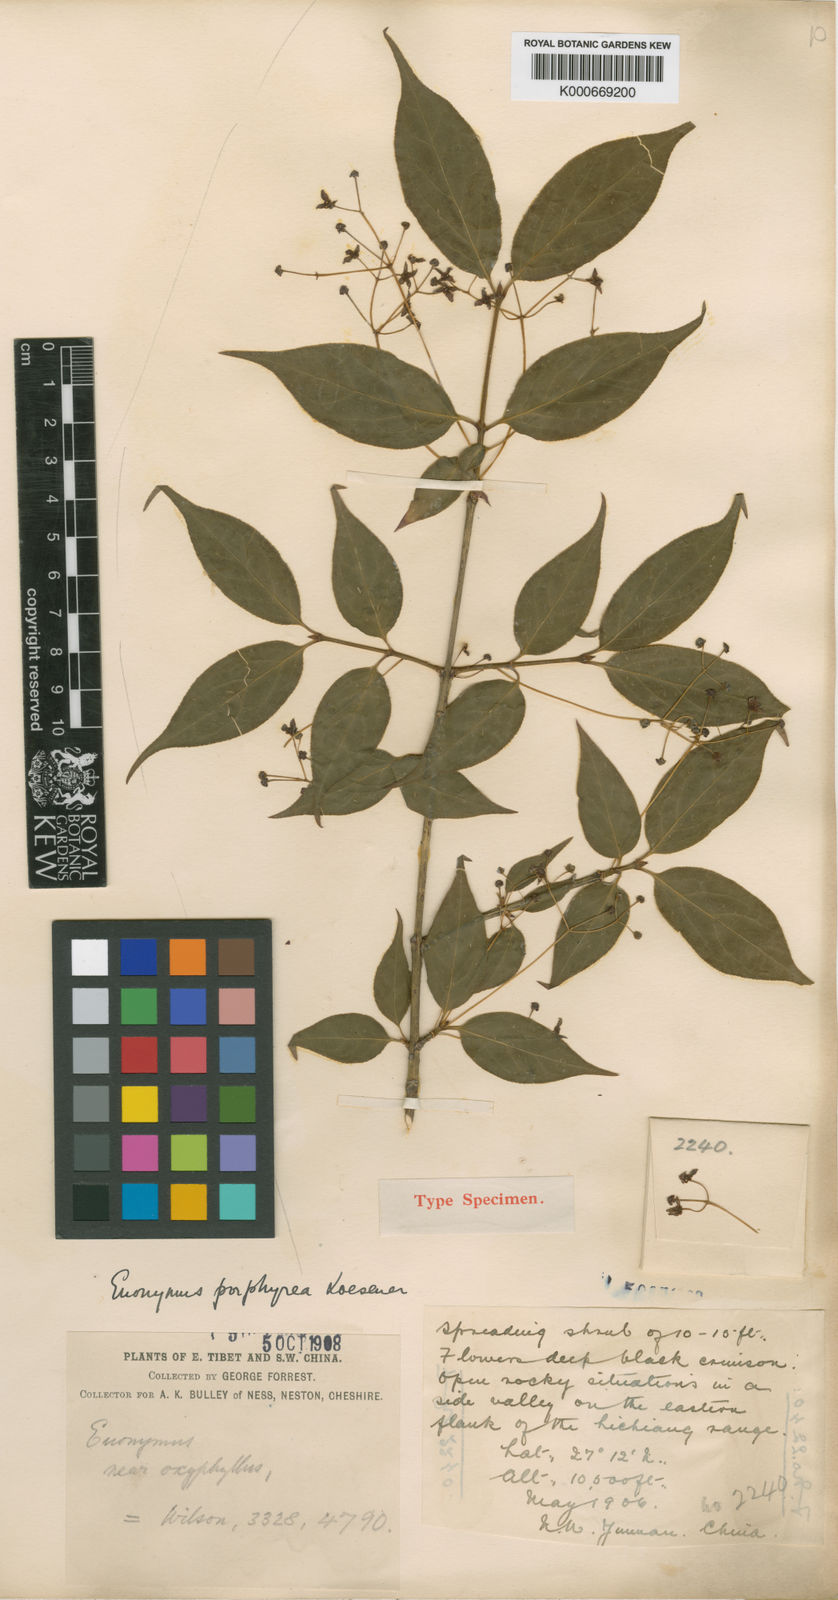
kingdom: Plantae
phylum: Tracheophyta
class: Magnoliopsida
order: Celastrales
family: Celastraceae
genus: Euonymus
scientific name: Euonymus frigidus
